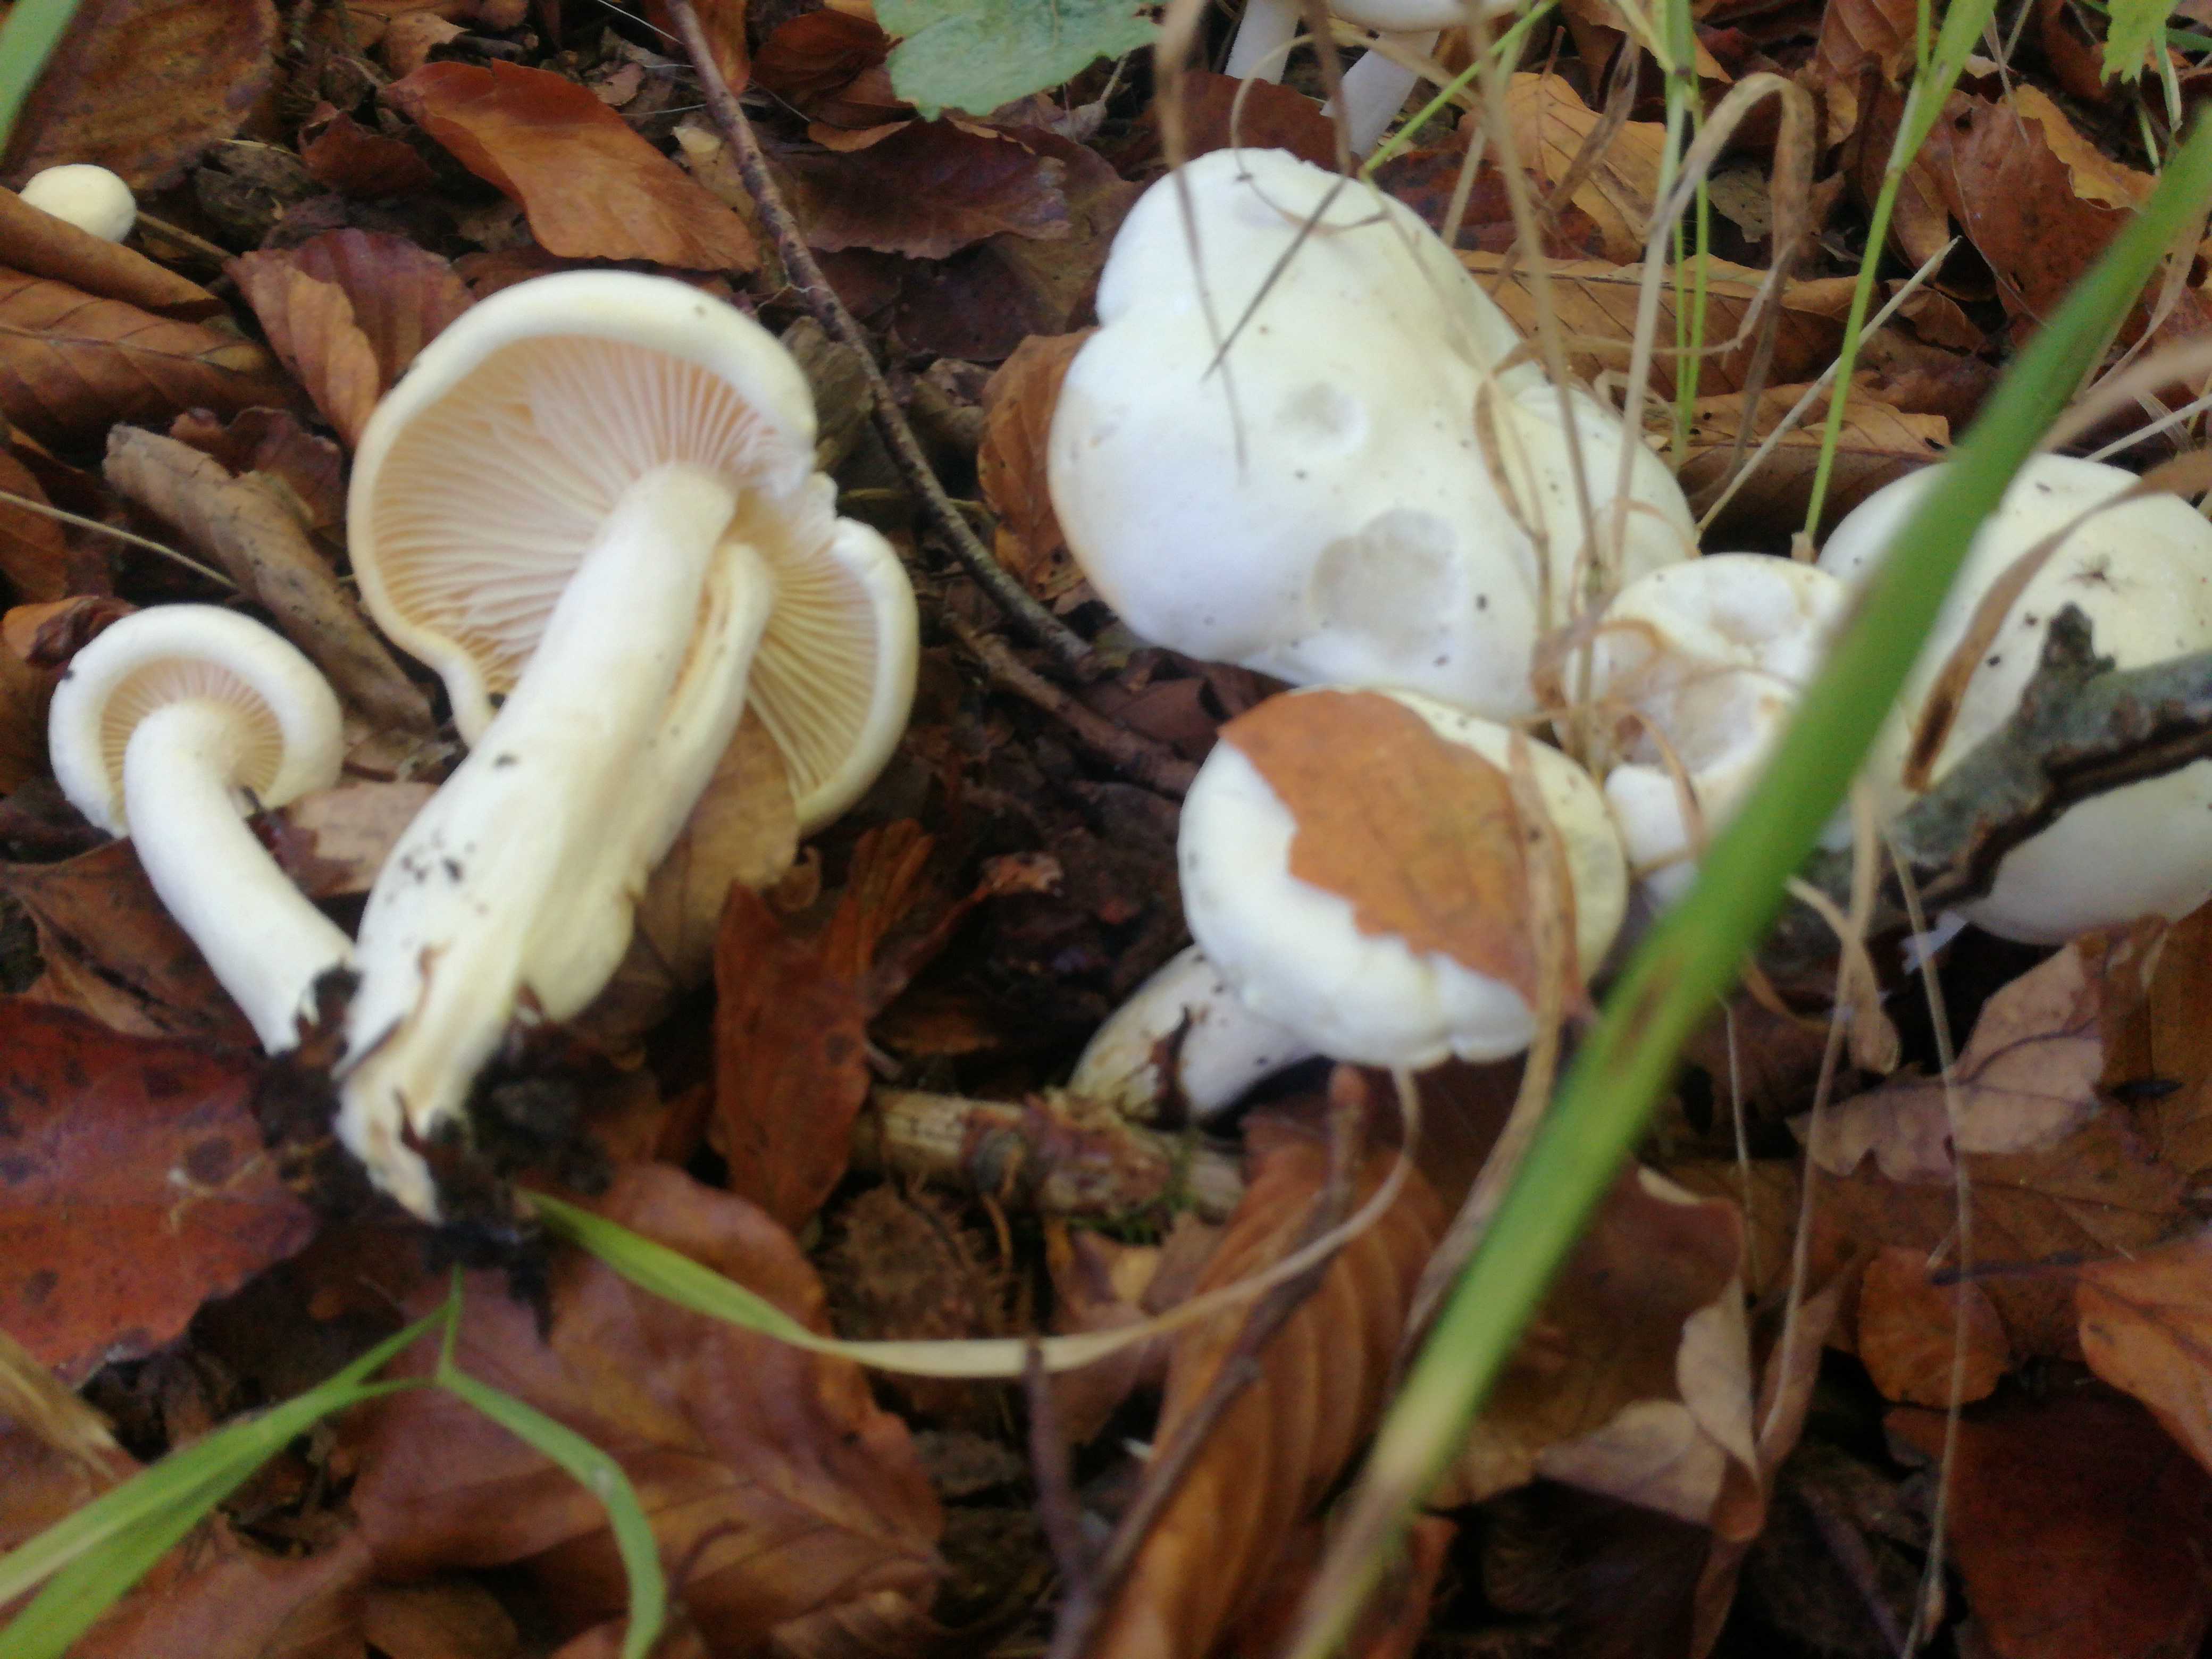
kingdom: Fungi
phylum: Basidiomycota
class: Agaricomycetes
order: Agaricales
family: Hygrophoraceae
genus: Hygrophorus
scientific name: Hygrophorus
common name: sneglehat
